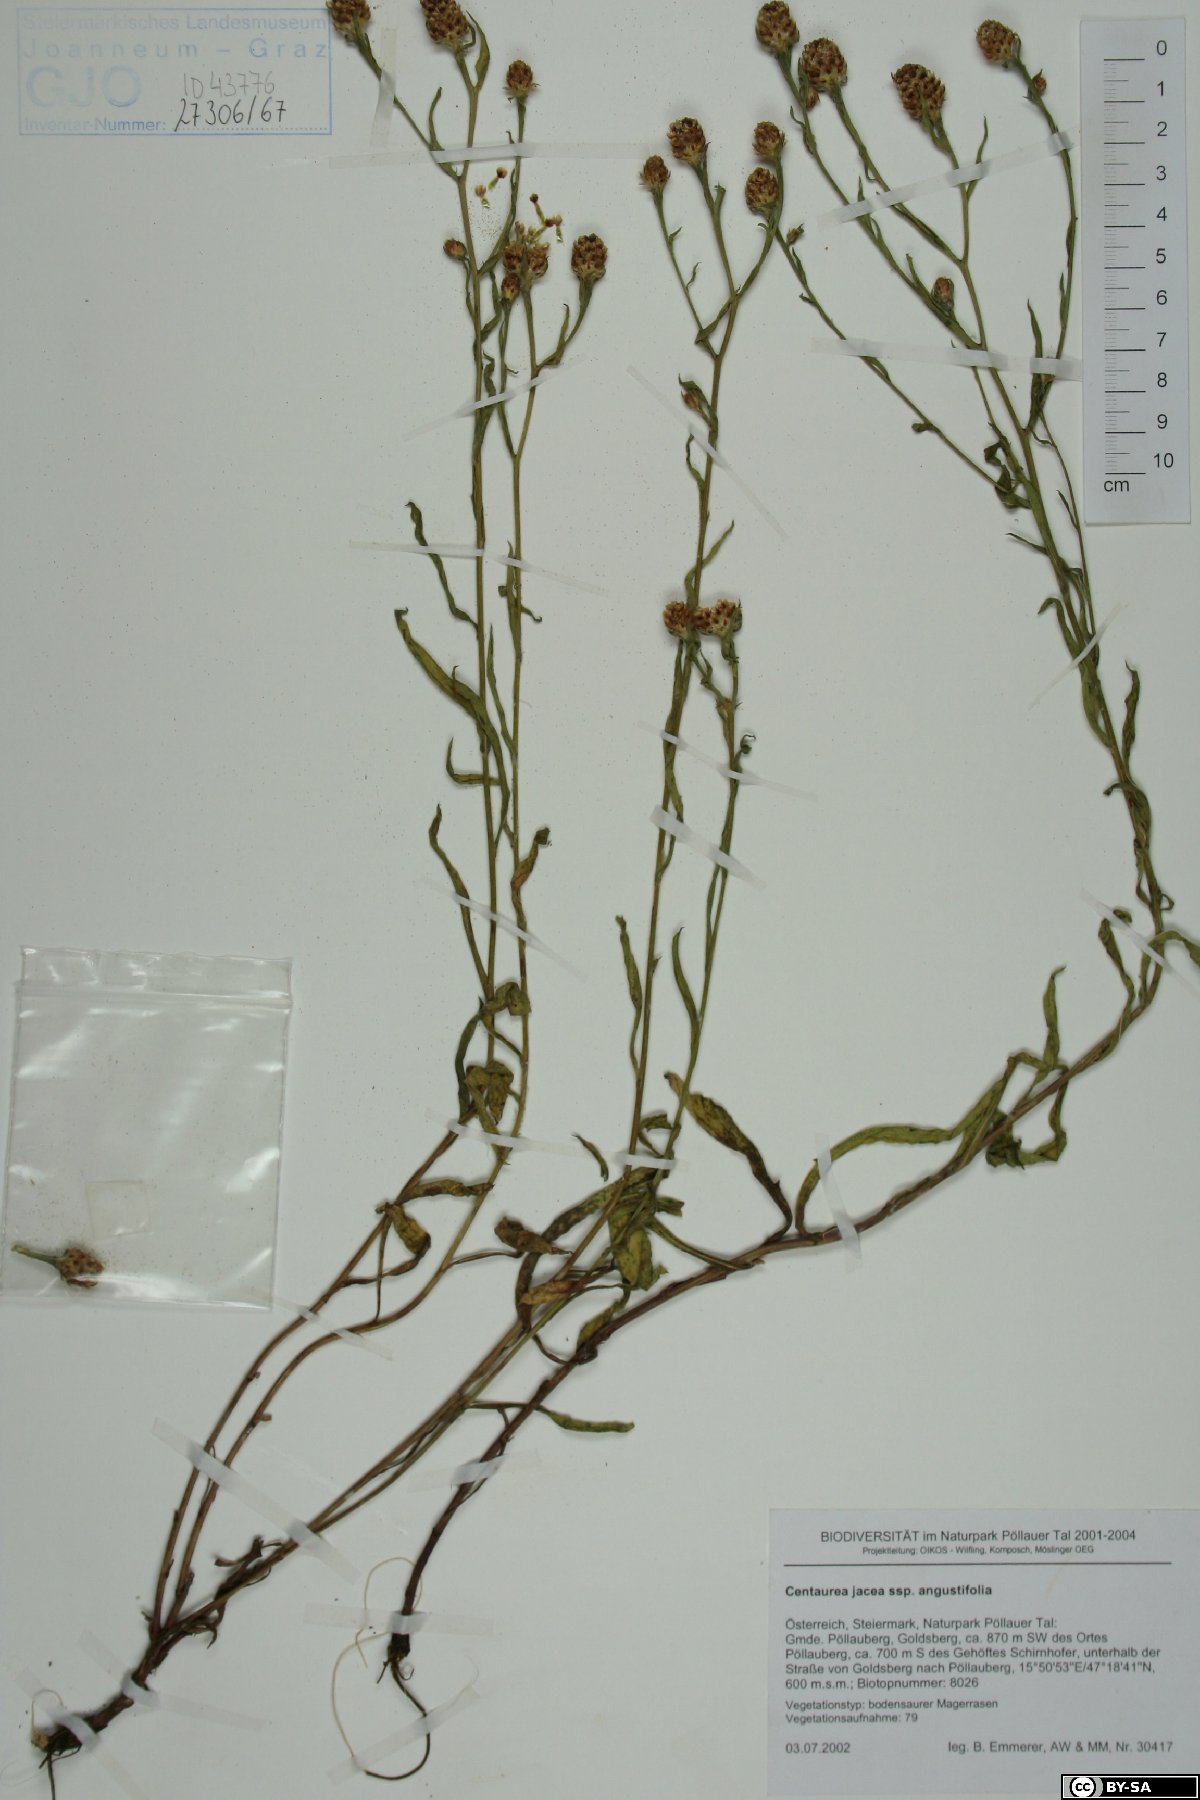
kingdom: Plantae
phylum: Tracheophyta
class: Magnoliopsida
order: Asterales
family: Asteraceae
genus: Centaurea
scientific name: Centaurea pannonica
